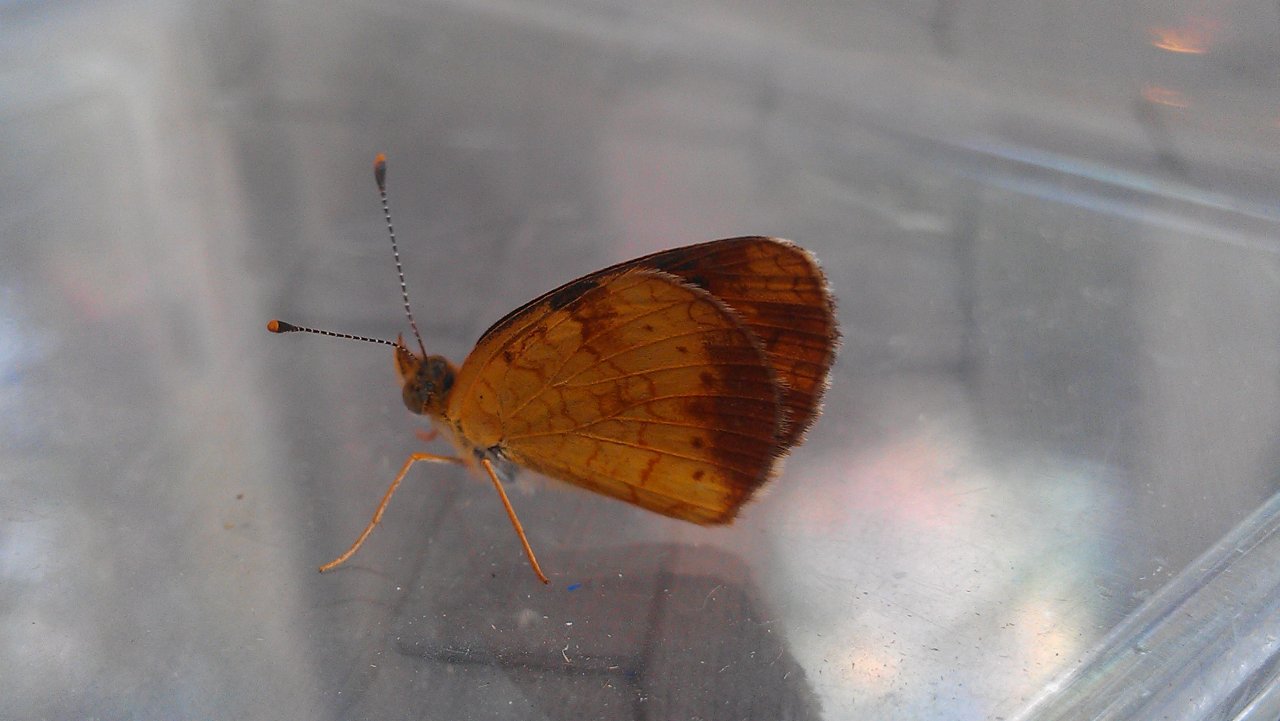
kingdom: Animalia
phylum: Arthropoda
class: Insecta
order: Lepidoptera
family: Nymphalidae
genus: Phyciodes
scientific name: Phyciodes tharos
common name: Northern Crescent
